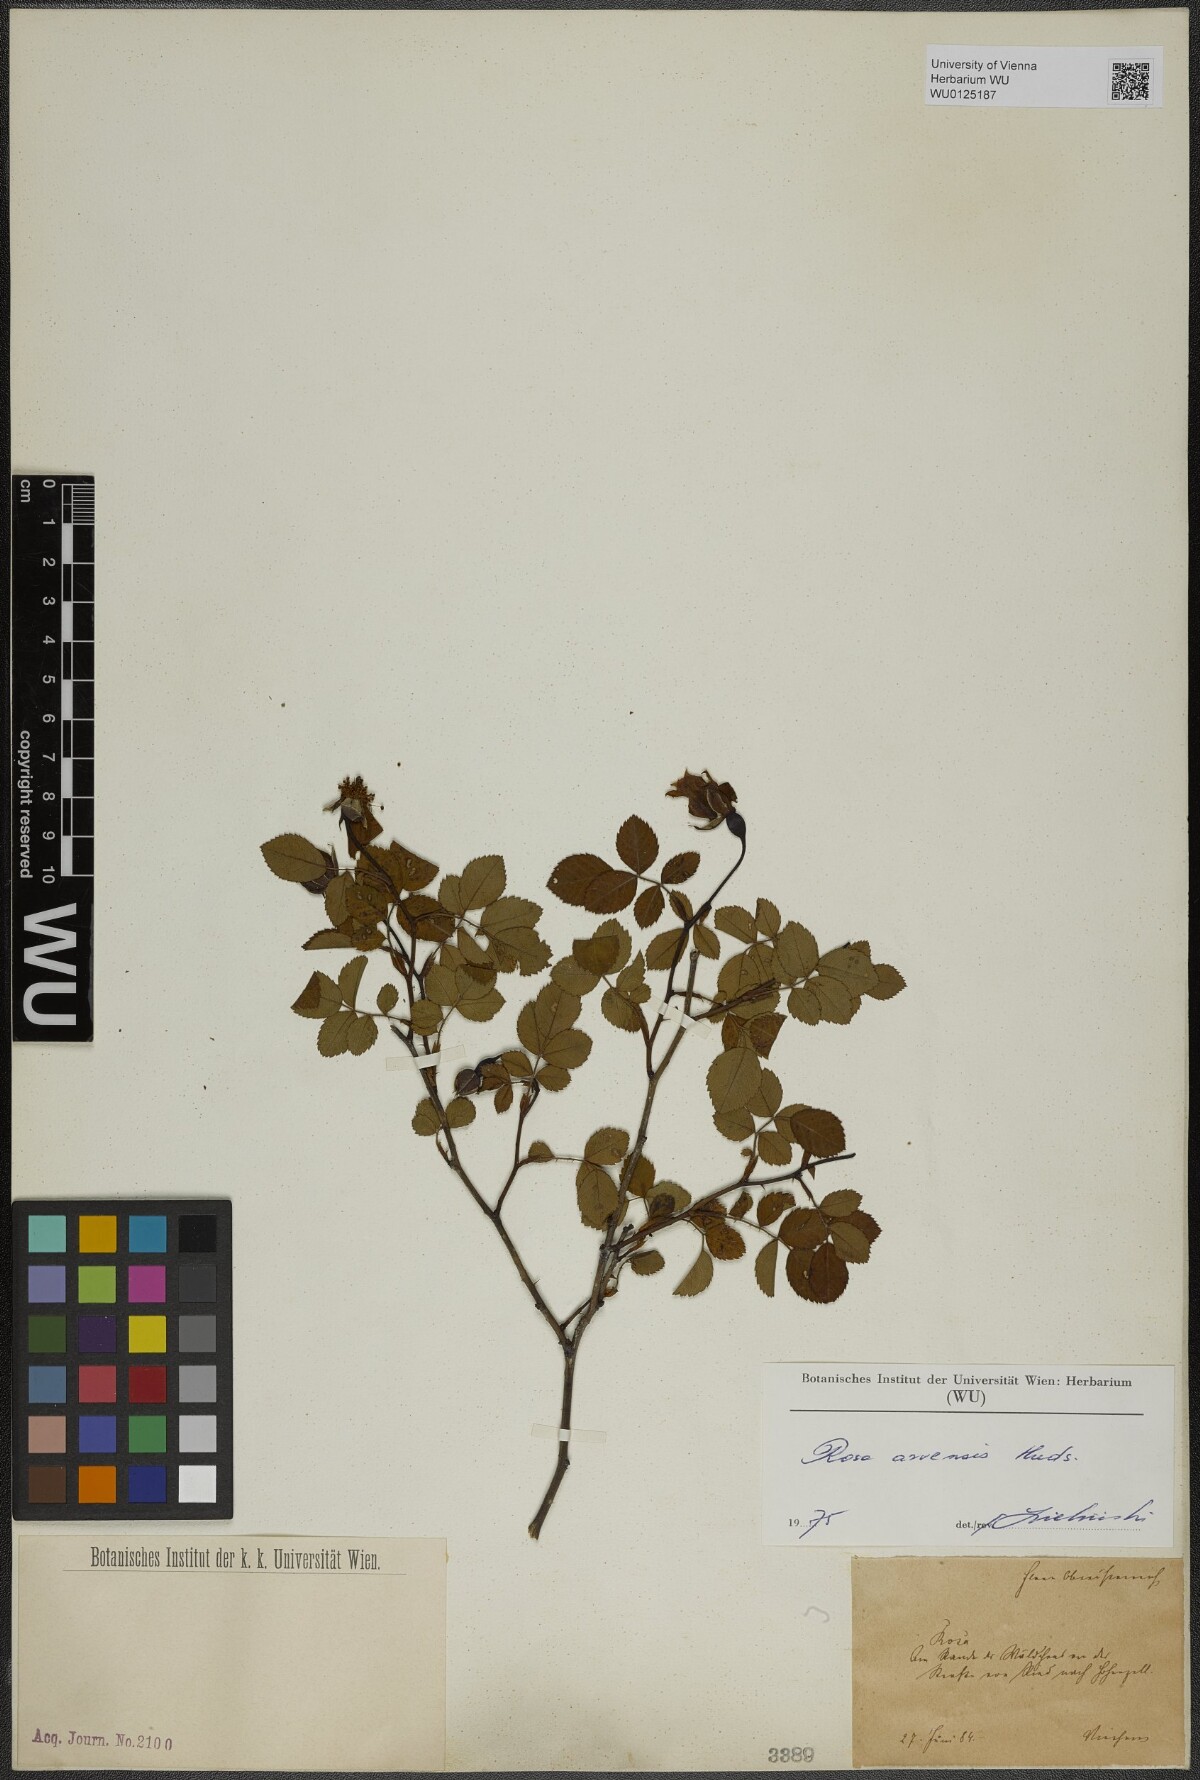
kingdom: Plantae
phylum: Tracheophyta
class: Magnoliopsida
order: Rosales
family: Rosaceae
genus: Rosa
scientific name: Rosa arvensis
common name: Field rose
